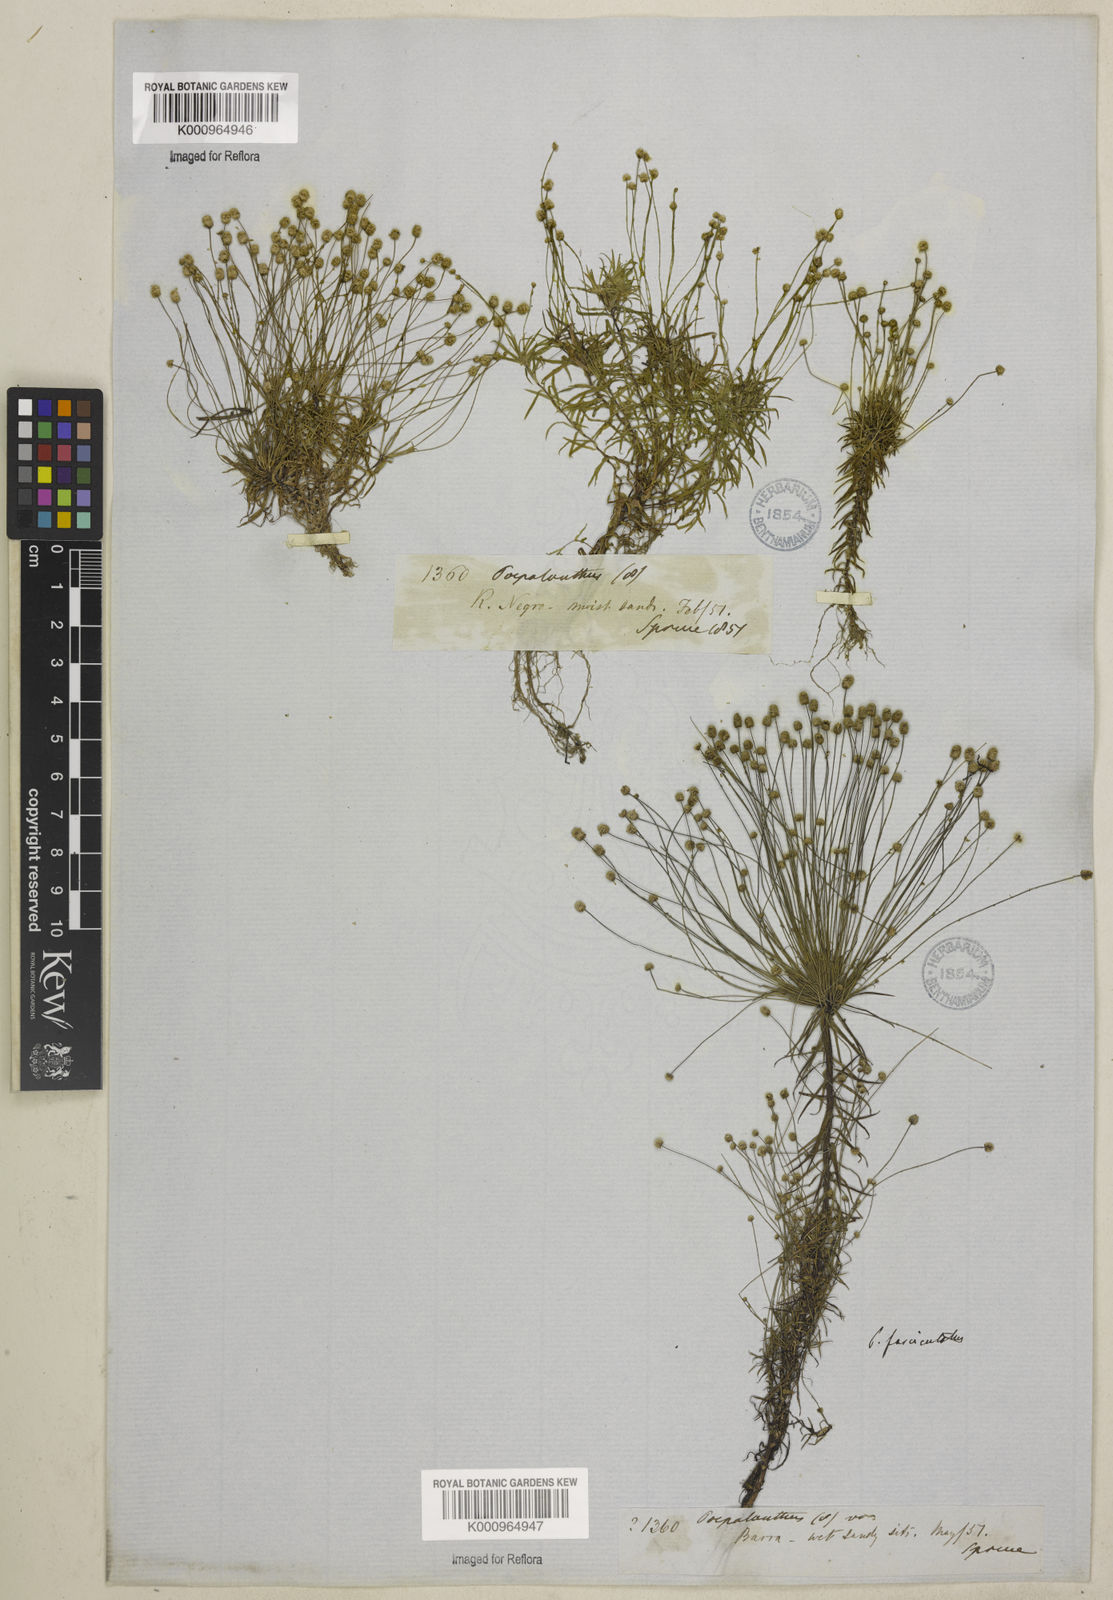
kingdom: Plantae
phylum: Tracheophyta
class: Liliopsida
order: Poales
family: Eriocaulaceae
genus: Paepalanthus
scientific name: Paepalanthus fasciculatus
